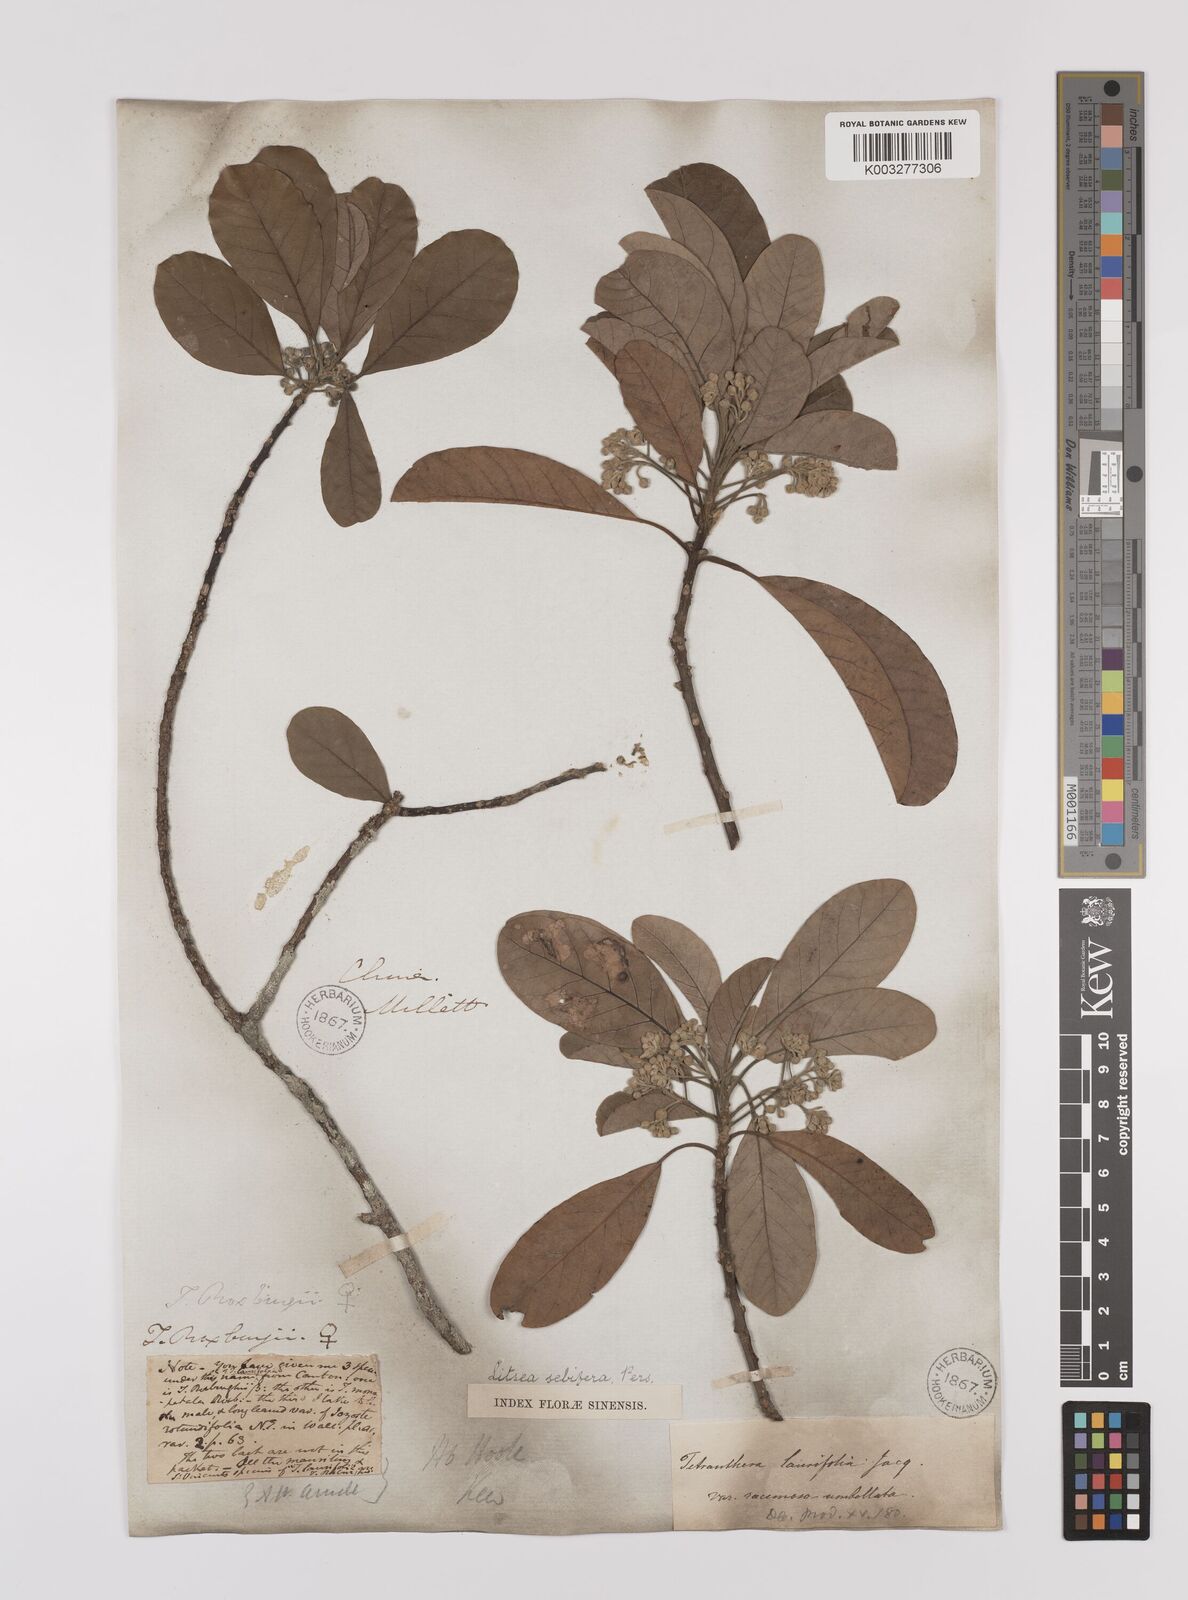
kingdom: Plantae
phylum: Tracheophyta
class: Magnoliopsida
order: Laurales
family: Lauraceae
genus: Litsea
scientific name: Litsea glutinosa
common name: Indian-laurel
